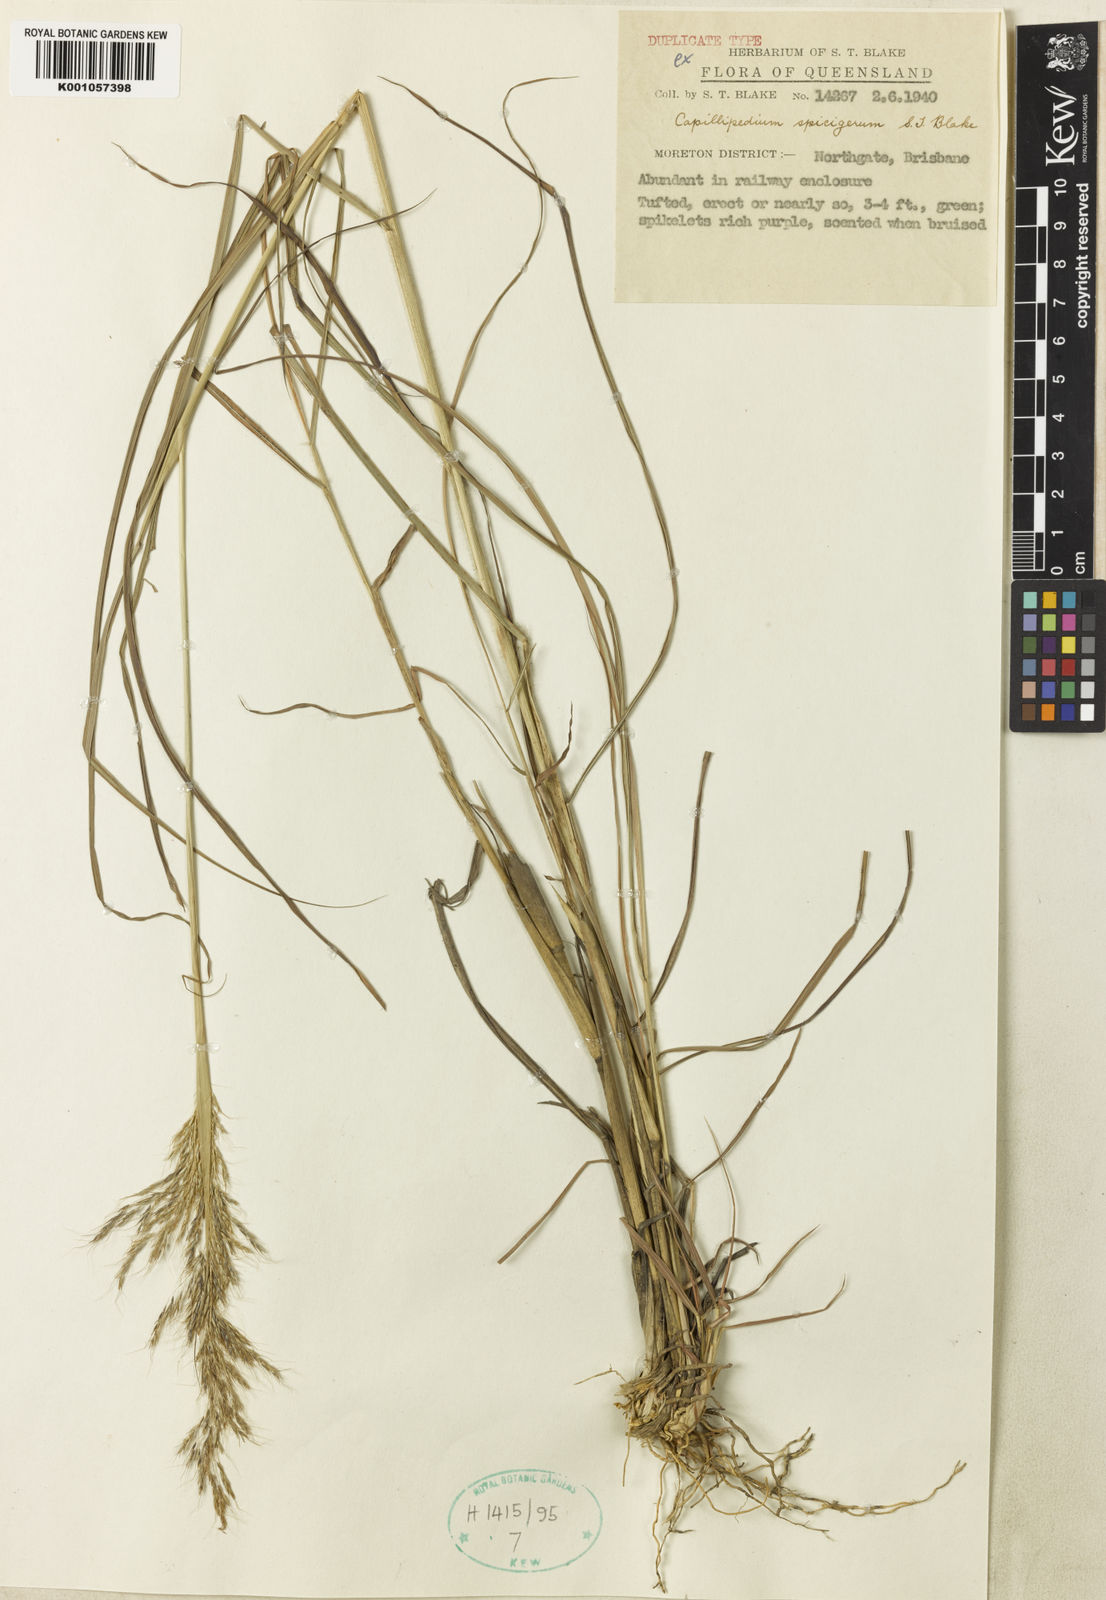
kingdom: Plantae
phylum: Tracheophyta
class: Liliopsida
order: Poales
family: Poaceae
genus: Capillipedium
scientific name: Capillipedium spicigerum
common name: Scented-top grass
